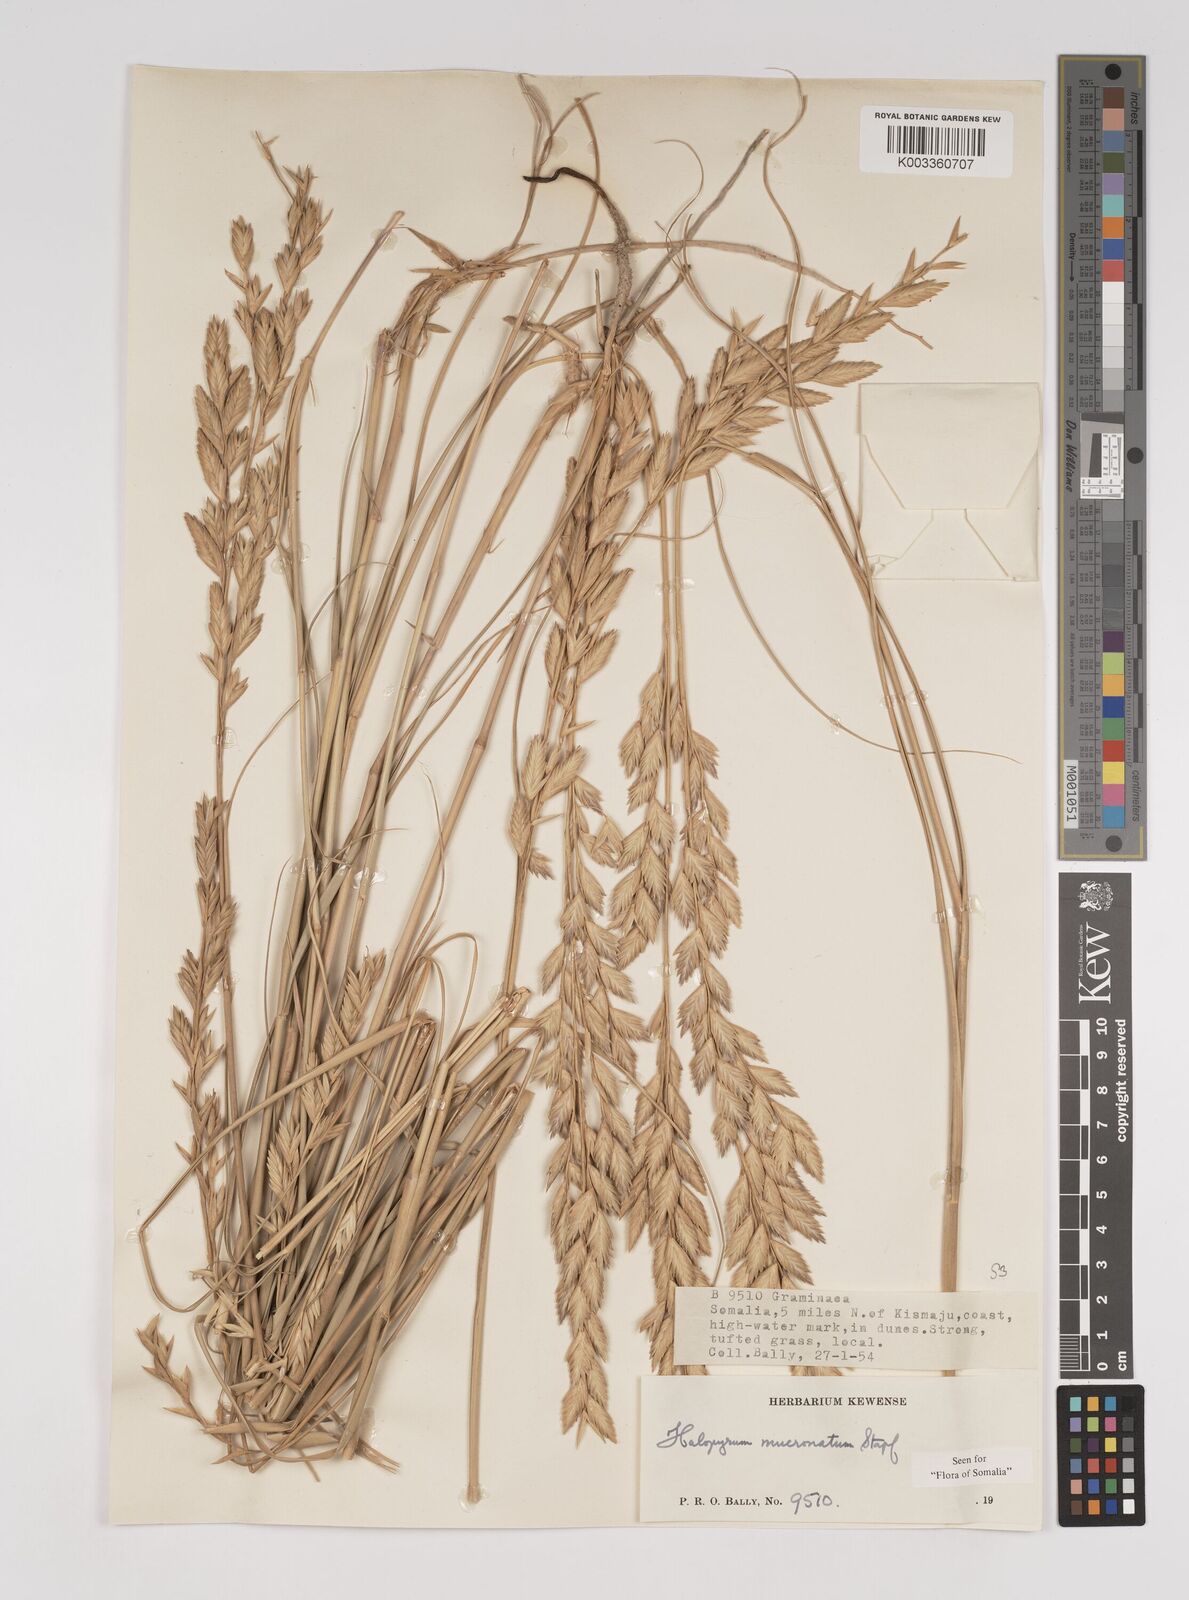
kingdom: Plantae
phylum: Tracheophyta
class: Liliopsida
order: Poales
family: Poaceae
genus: Halopyrum
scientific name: Halopyrum mucronatum
